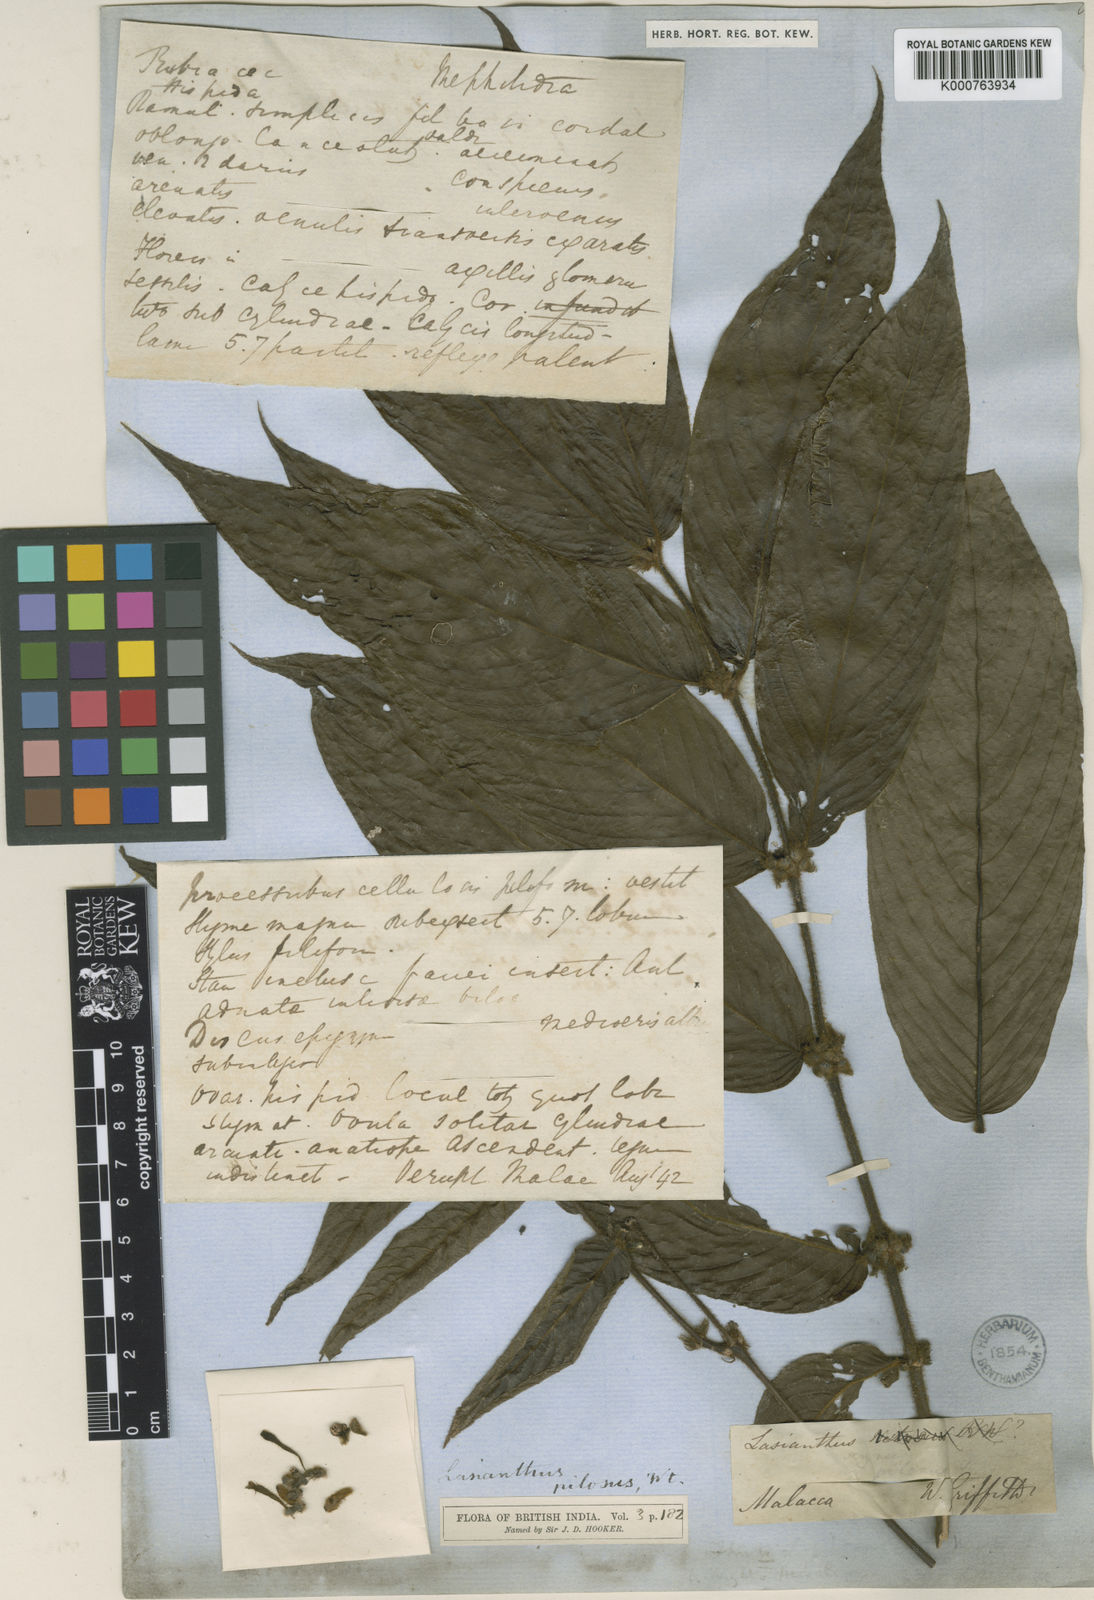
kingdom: Plantae
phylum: Tracheophyta
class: Magnoliopsida
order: Gentianales
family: Rubiaceae
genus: Lasianthus
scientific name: Lasianthus pilosus
